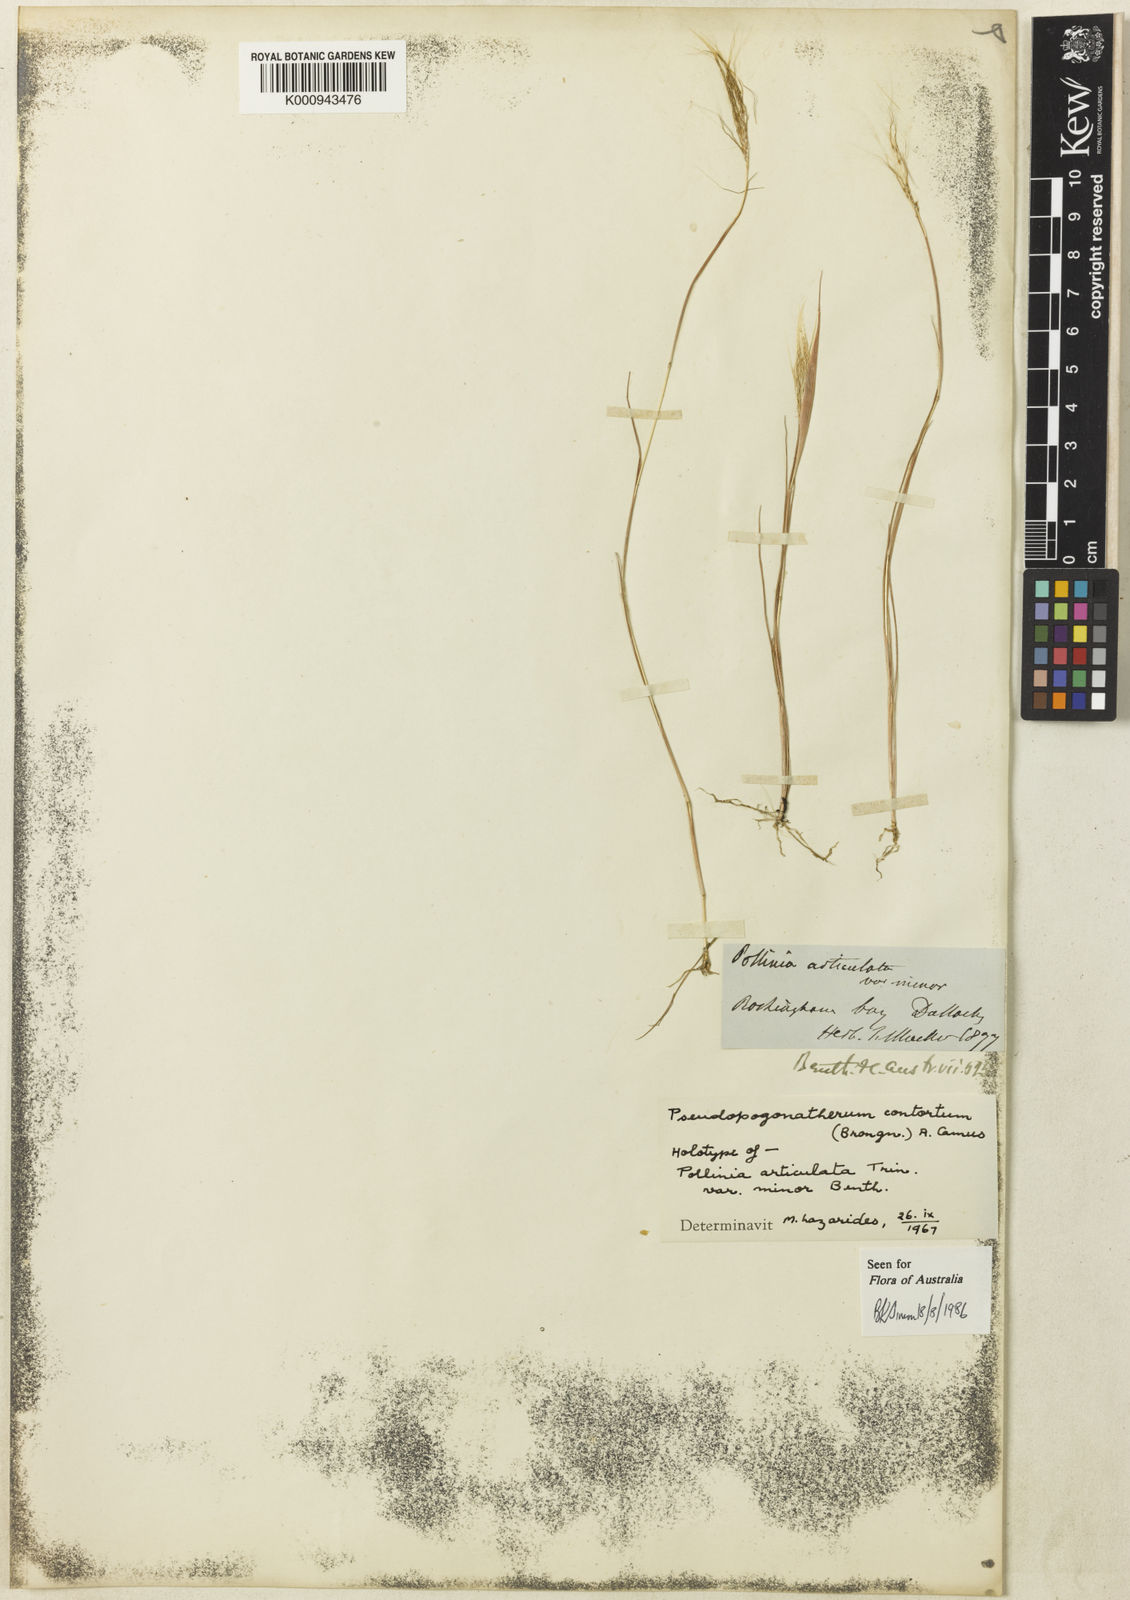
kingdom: Plantae
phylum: Tracheophyta
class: Liliopsida
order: Poales
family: Poaceae
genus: Pseudopogonatherum
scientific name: Pseudopogonatherum contortum
